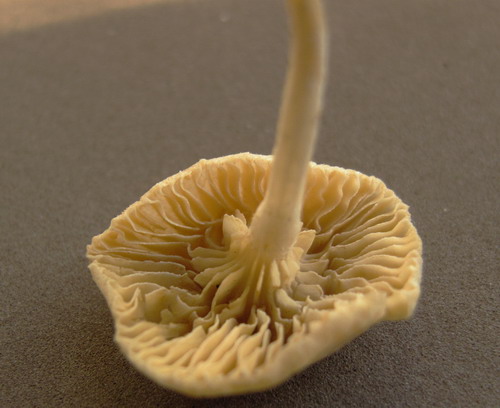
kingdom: Fungi
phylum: Basidiomycota
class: Agaricomycetes
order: Agaricales
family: Tubariaceae
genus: Tubaria
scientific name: Tubaria dispersa
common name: tjørne-fnughat
